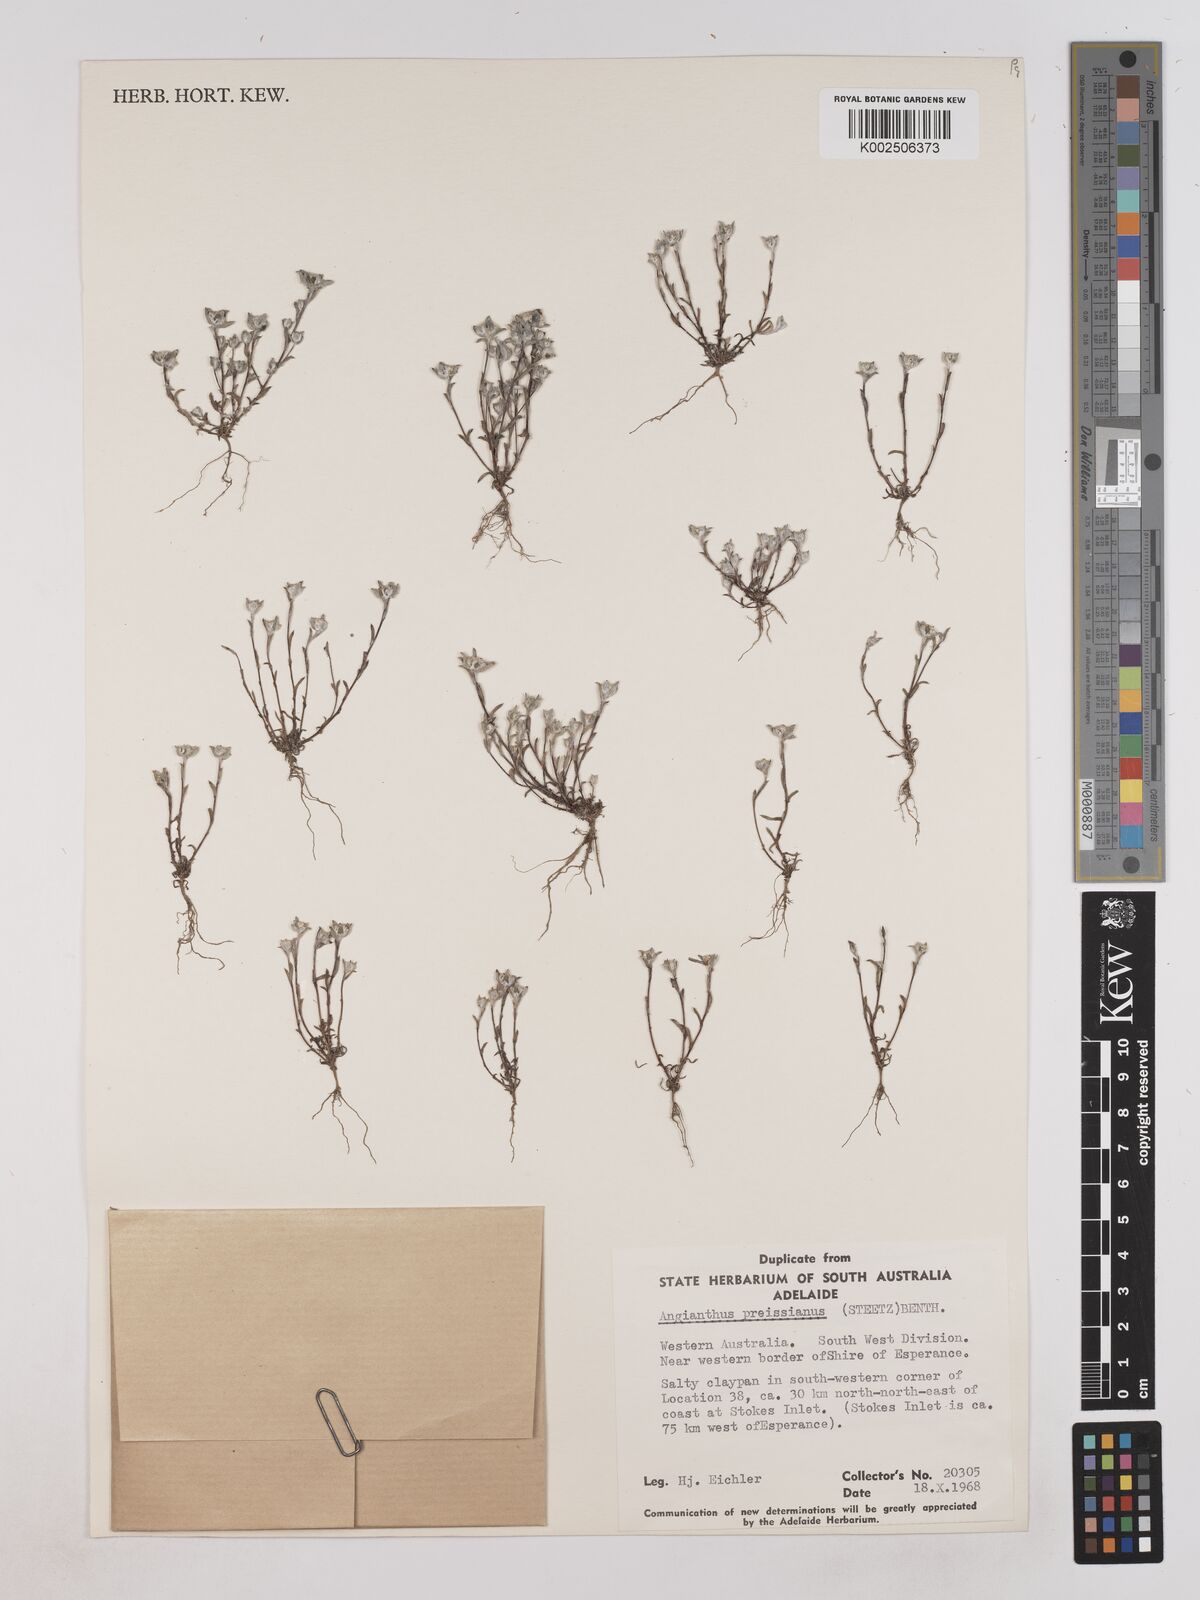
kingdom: Plantae
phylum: Tracheophyta
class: Magnoliopsida
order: Asterales
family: Asteraceae
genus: Angianthus
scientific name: Angianthus preissianus
